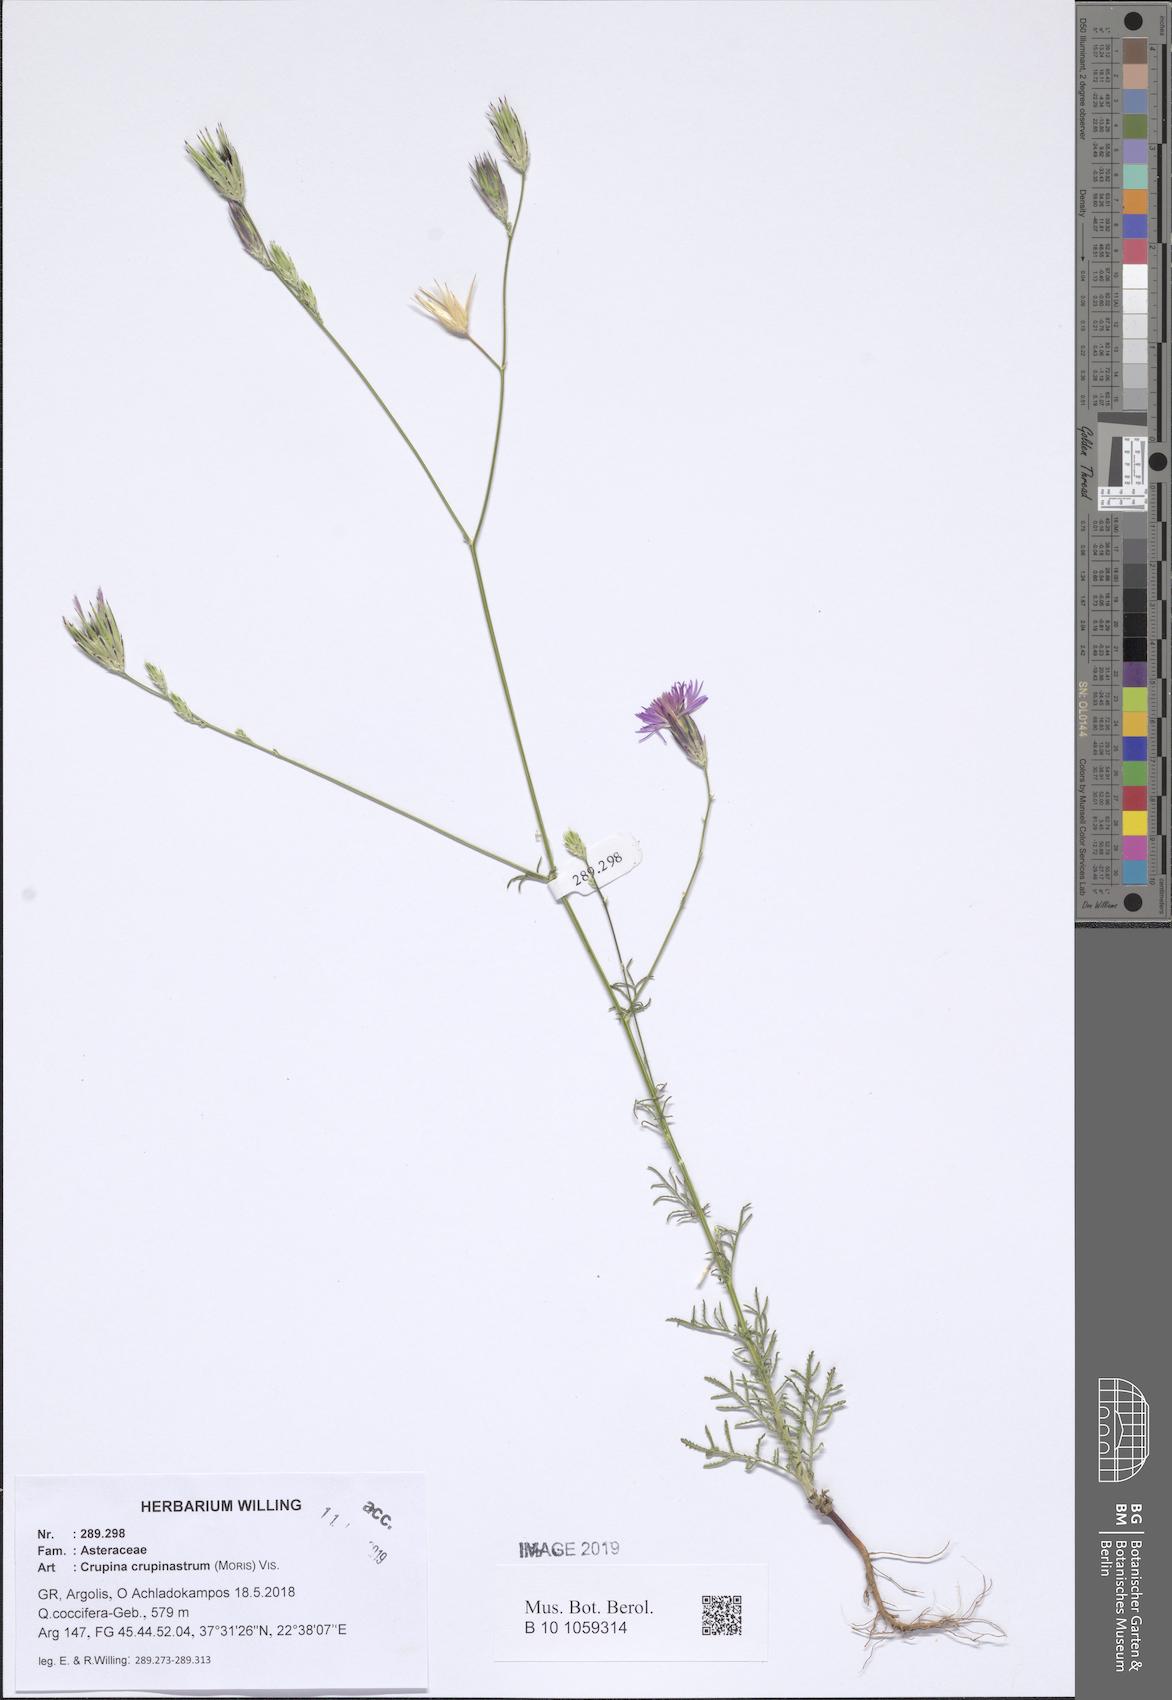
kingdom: Plantae
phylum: Tracheophyta
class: Magnoliopsida
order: Asterales
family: Asteraceae
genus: Crupina
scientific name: Crupina crupinastrum
